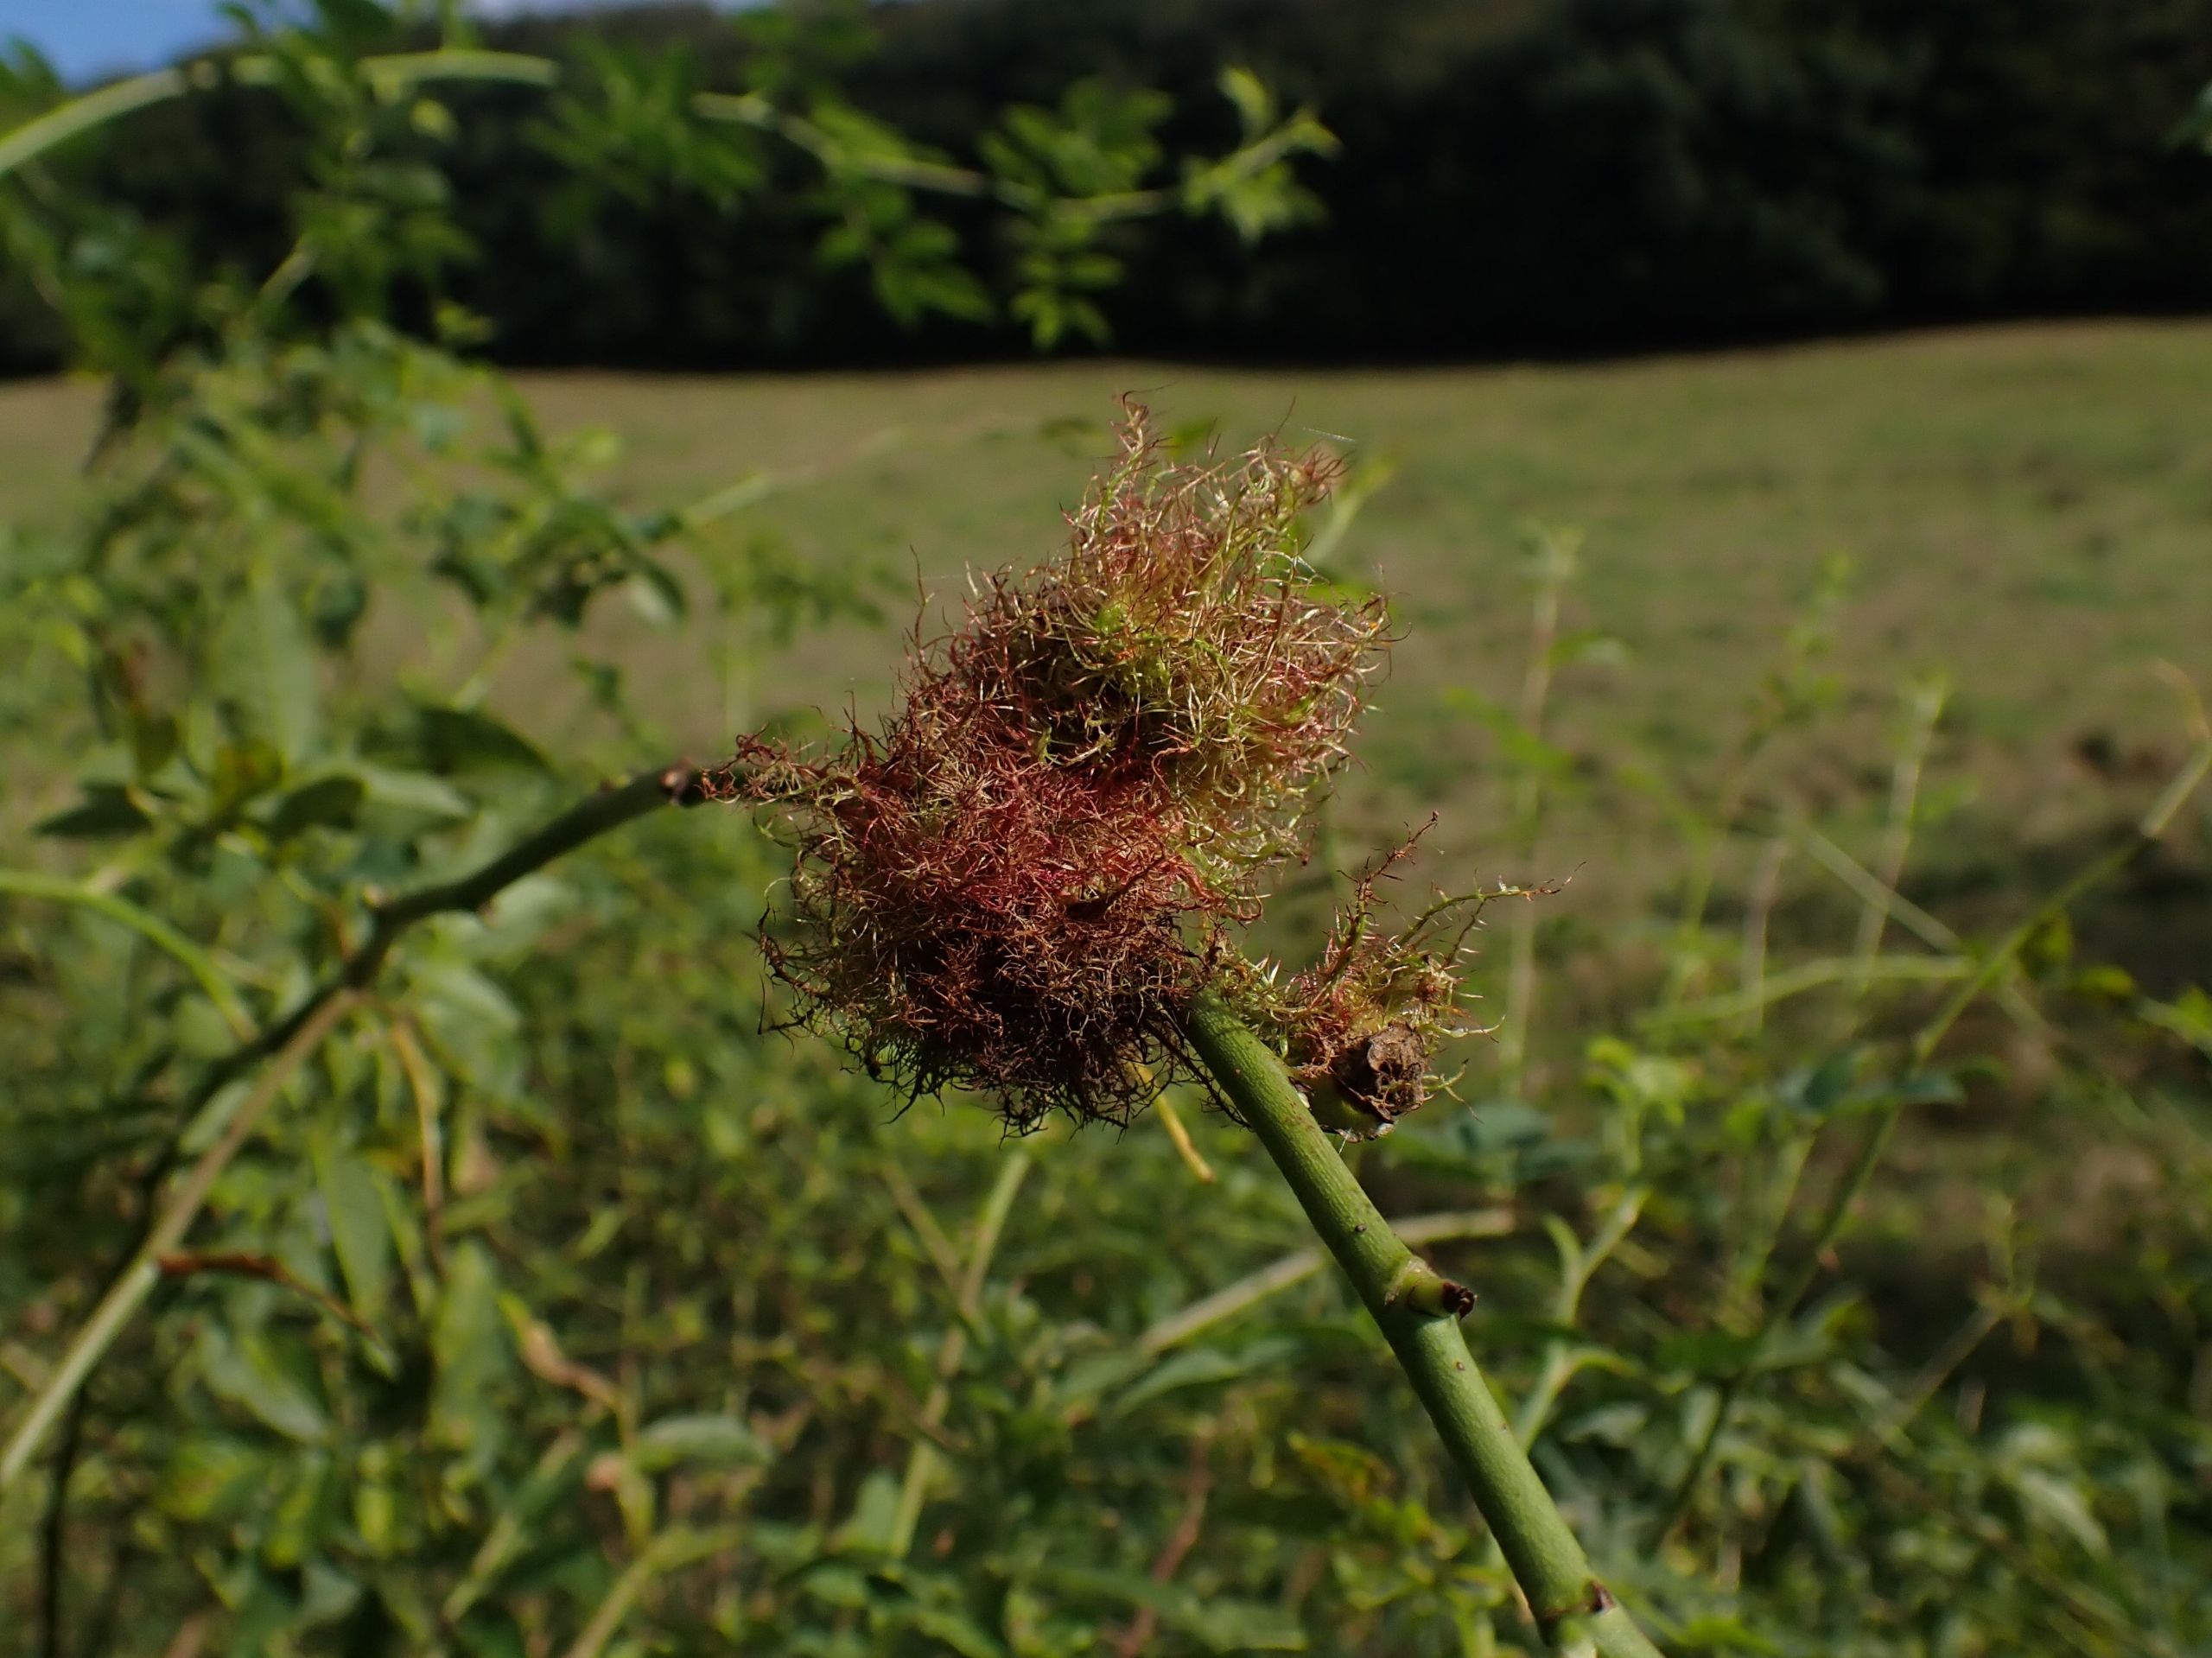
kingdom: Animalia
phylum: Arthropoda
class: Insecta
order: Hymenoptera
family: Cynipidae
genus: Diplolepis
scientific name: Diplolepis rosae
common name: Bedeguargalhveps
